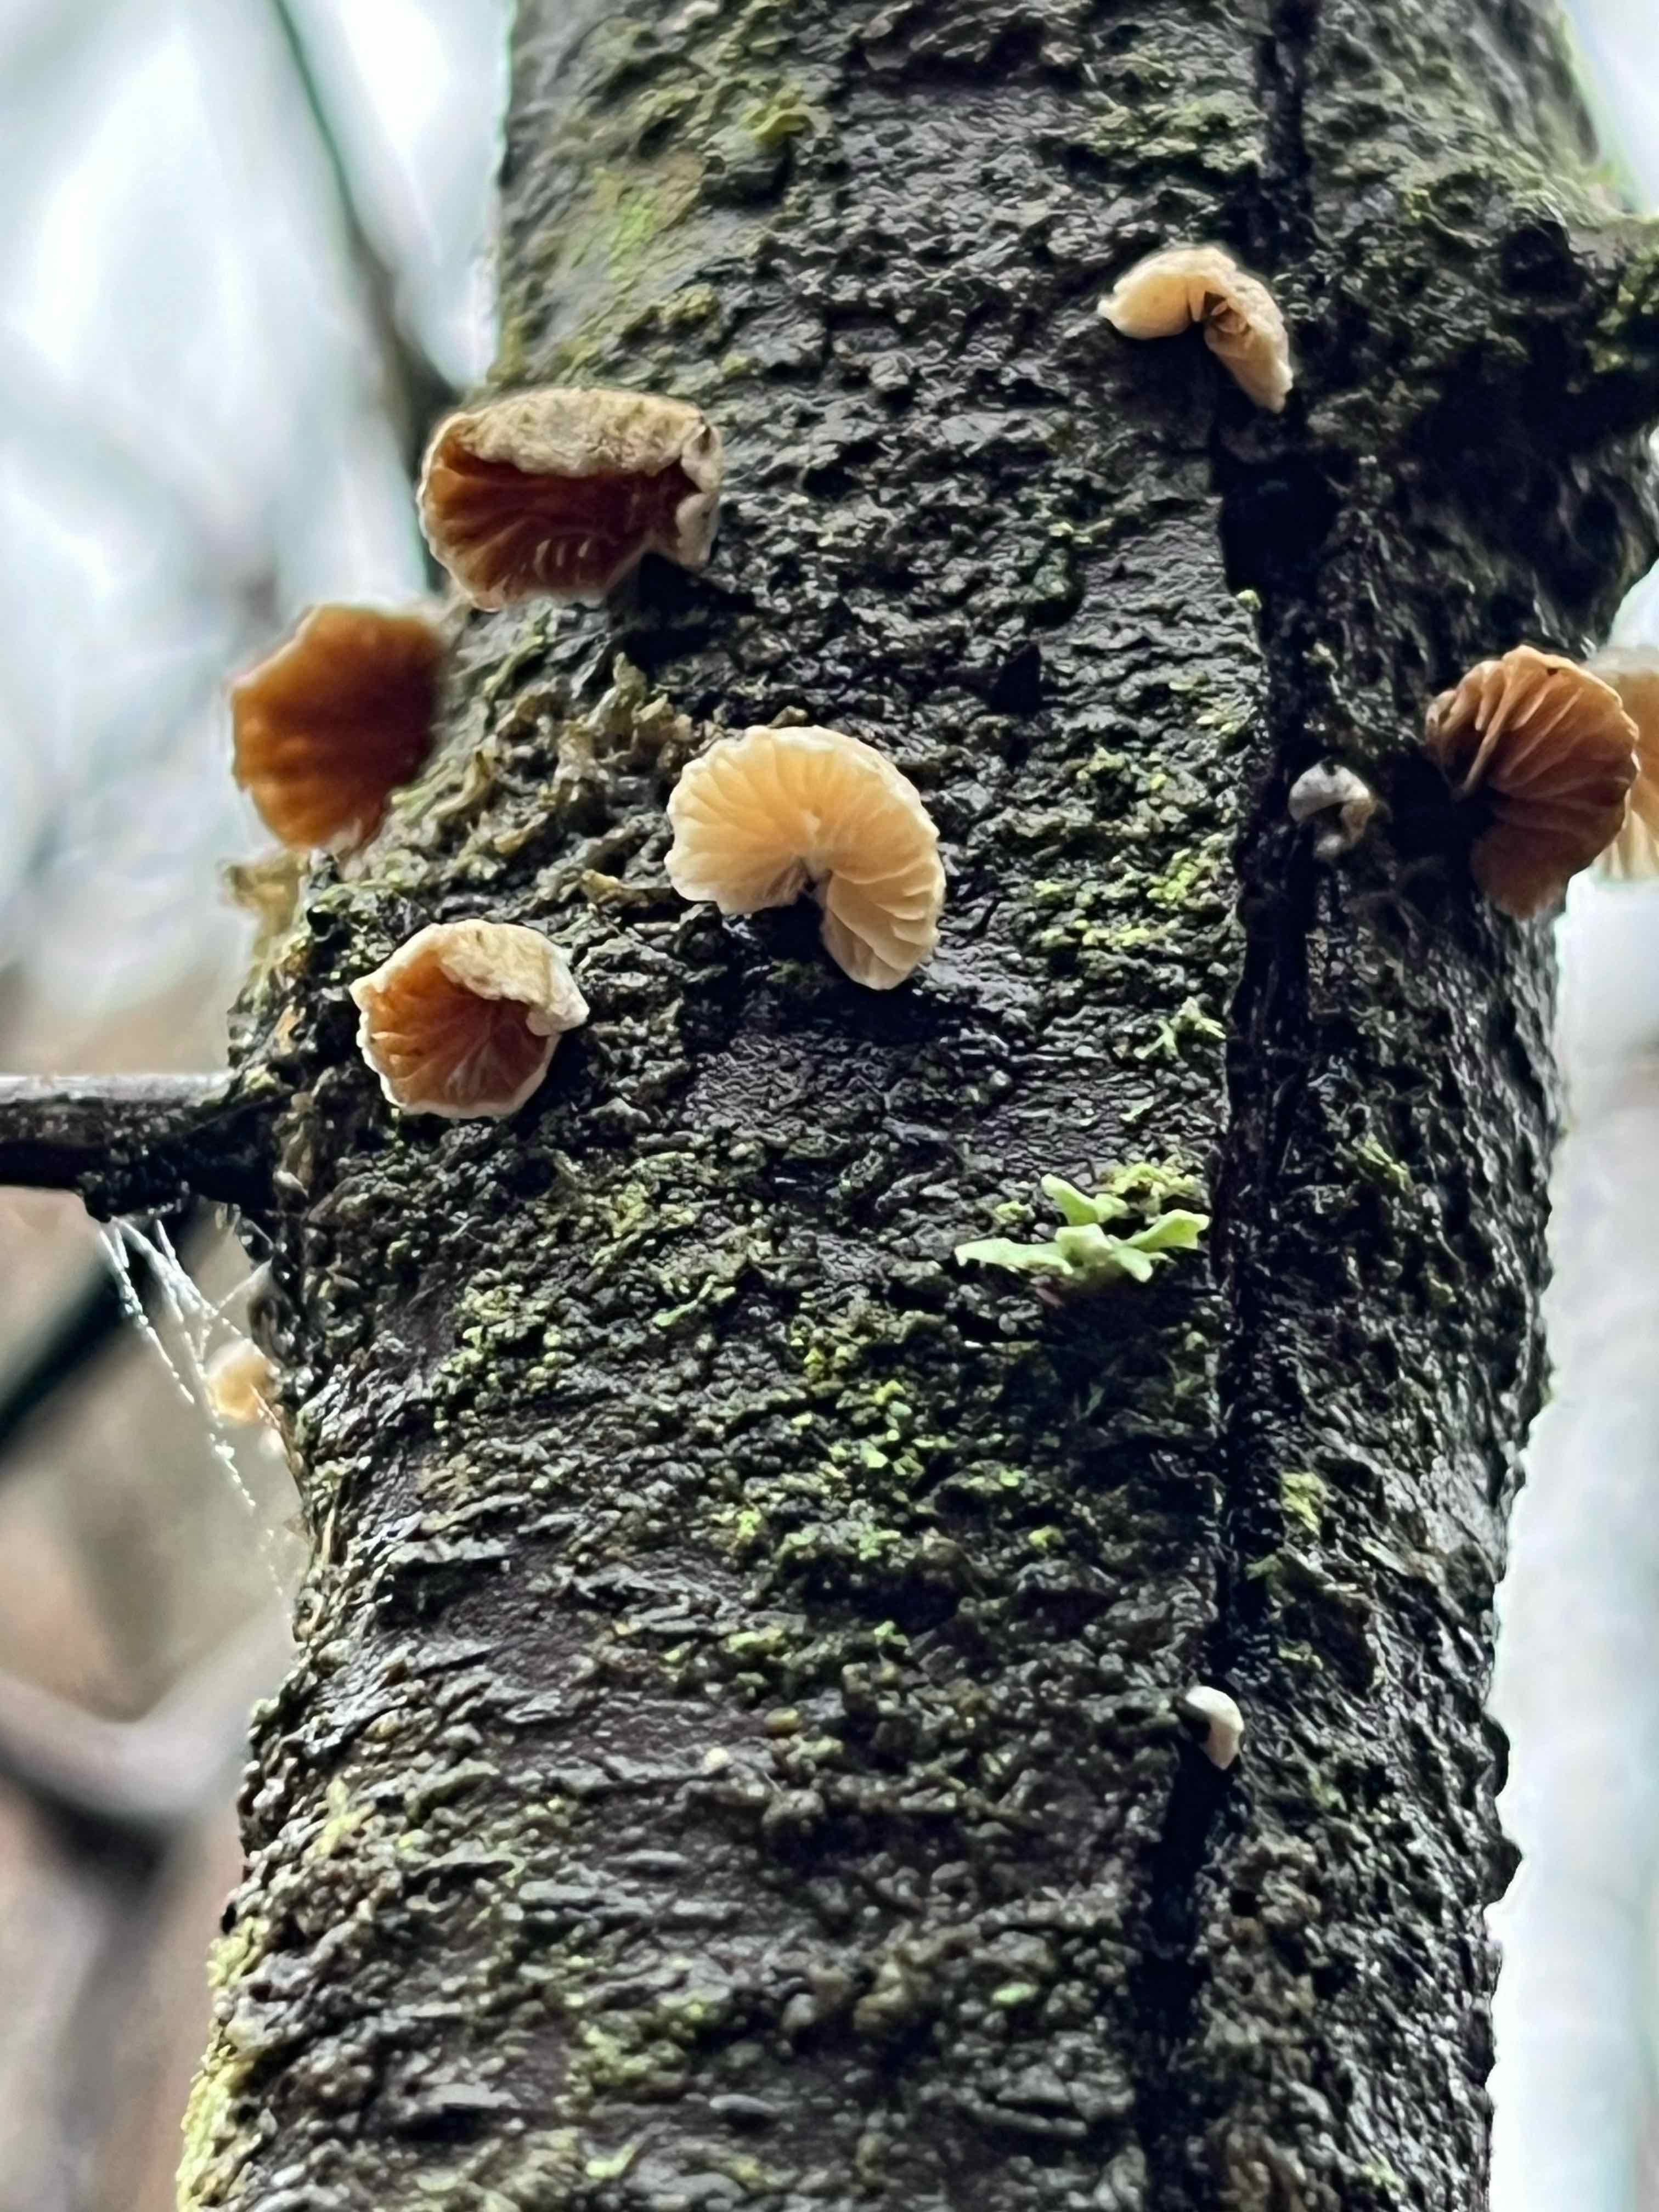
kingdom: Fungi
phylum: Basidiomycota
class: Agaricomycetes
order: Agaricales
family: Crepidotaceae
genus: Crepidotus
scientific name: Crepidotus
